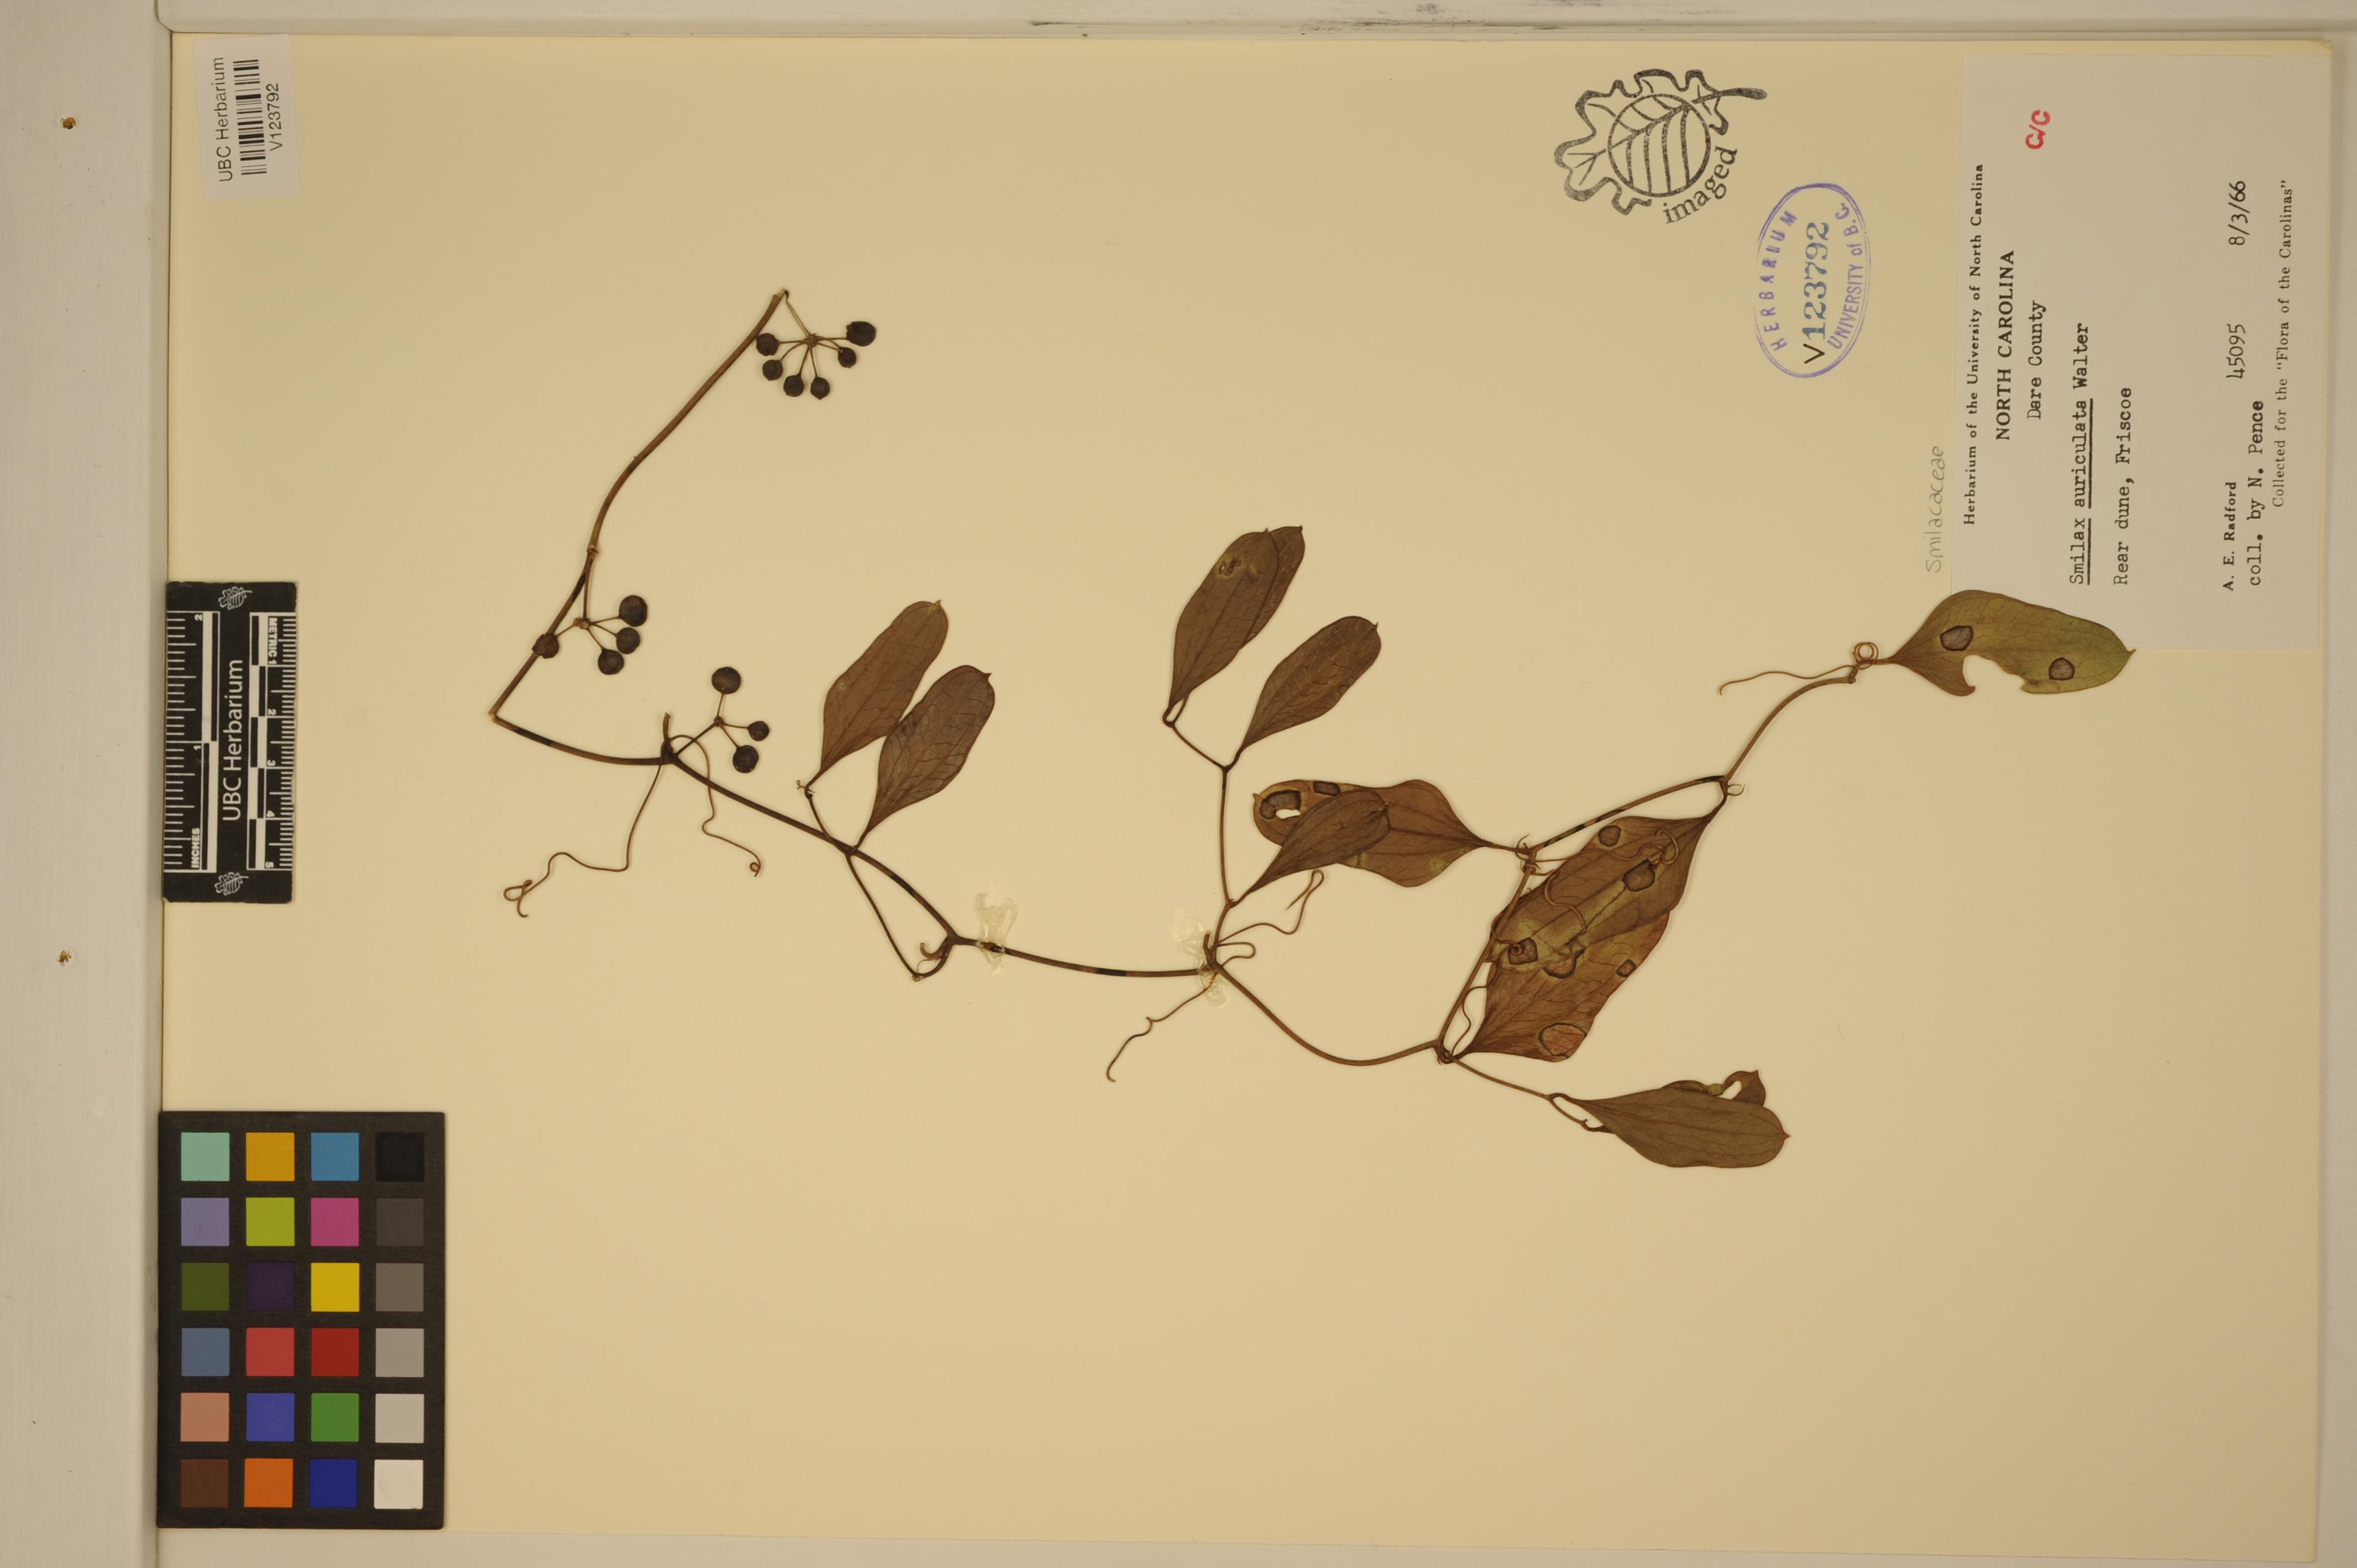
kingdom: Plantae
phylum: Tracheophyta
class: Liliopsida
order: Liliales
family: Smilacaceae
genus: Smilax
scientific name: Smilax auriculata
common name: Wild bamboo
